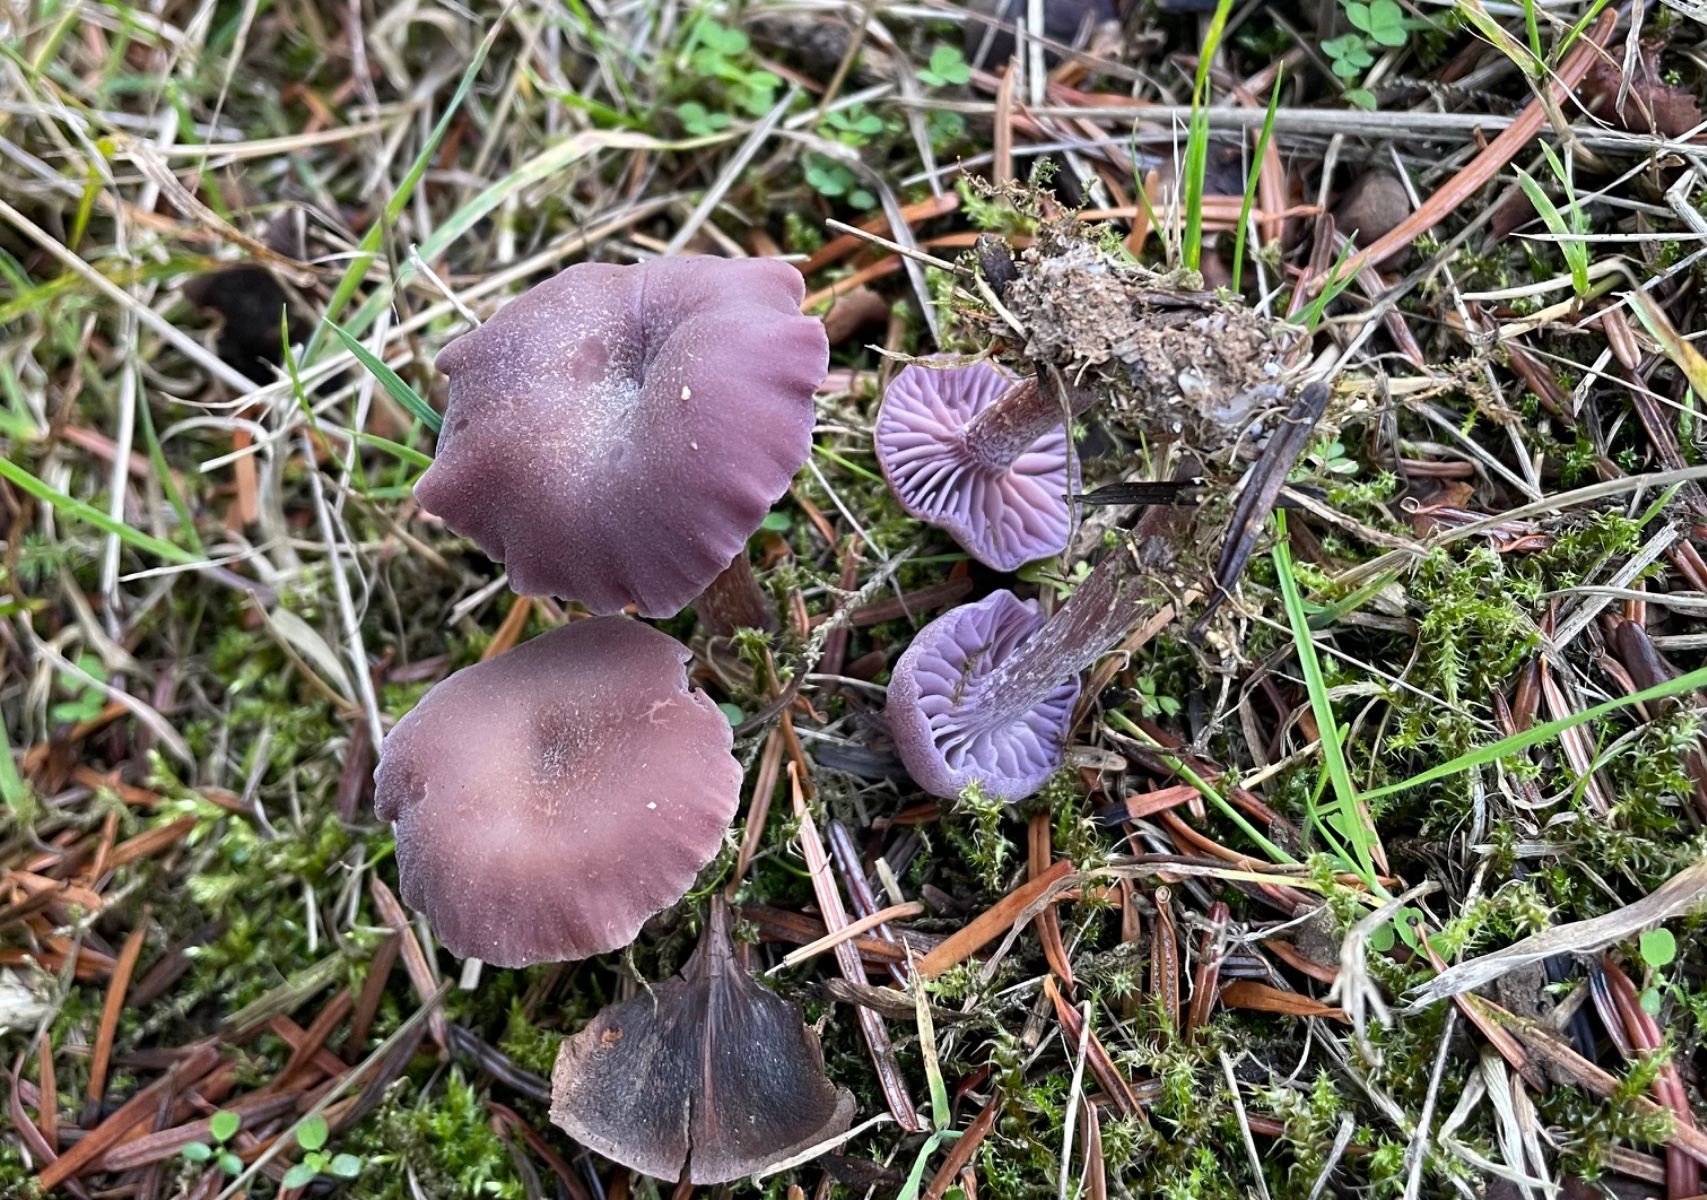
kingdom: Fungi
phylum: Basidiomycota
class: Agaricomycetes
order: Agaricales
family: Hydnangiaceae
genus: Laccaria
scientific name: Laccaria amethystina
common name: violet ametysthat
